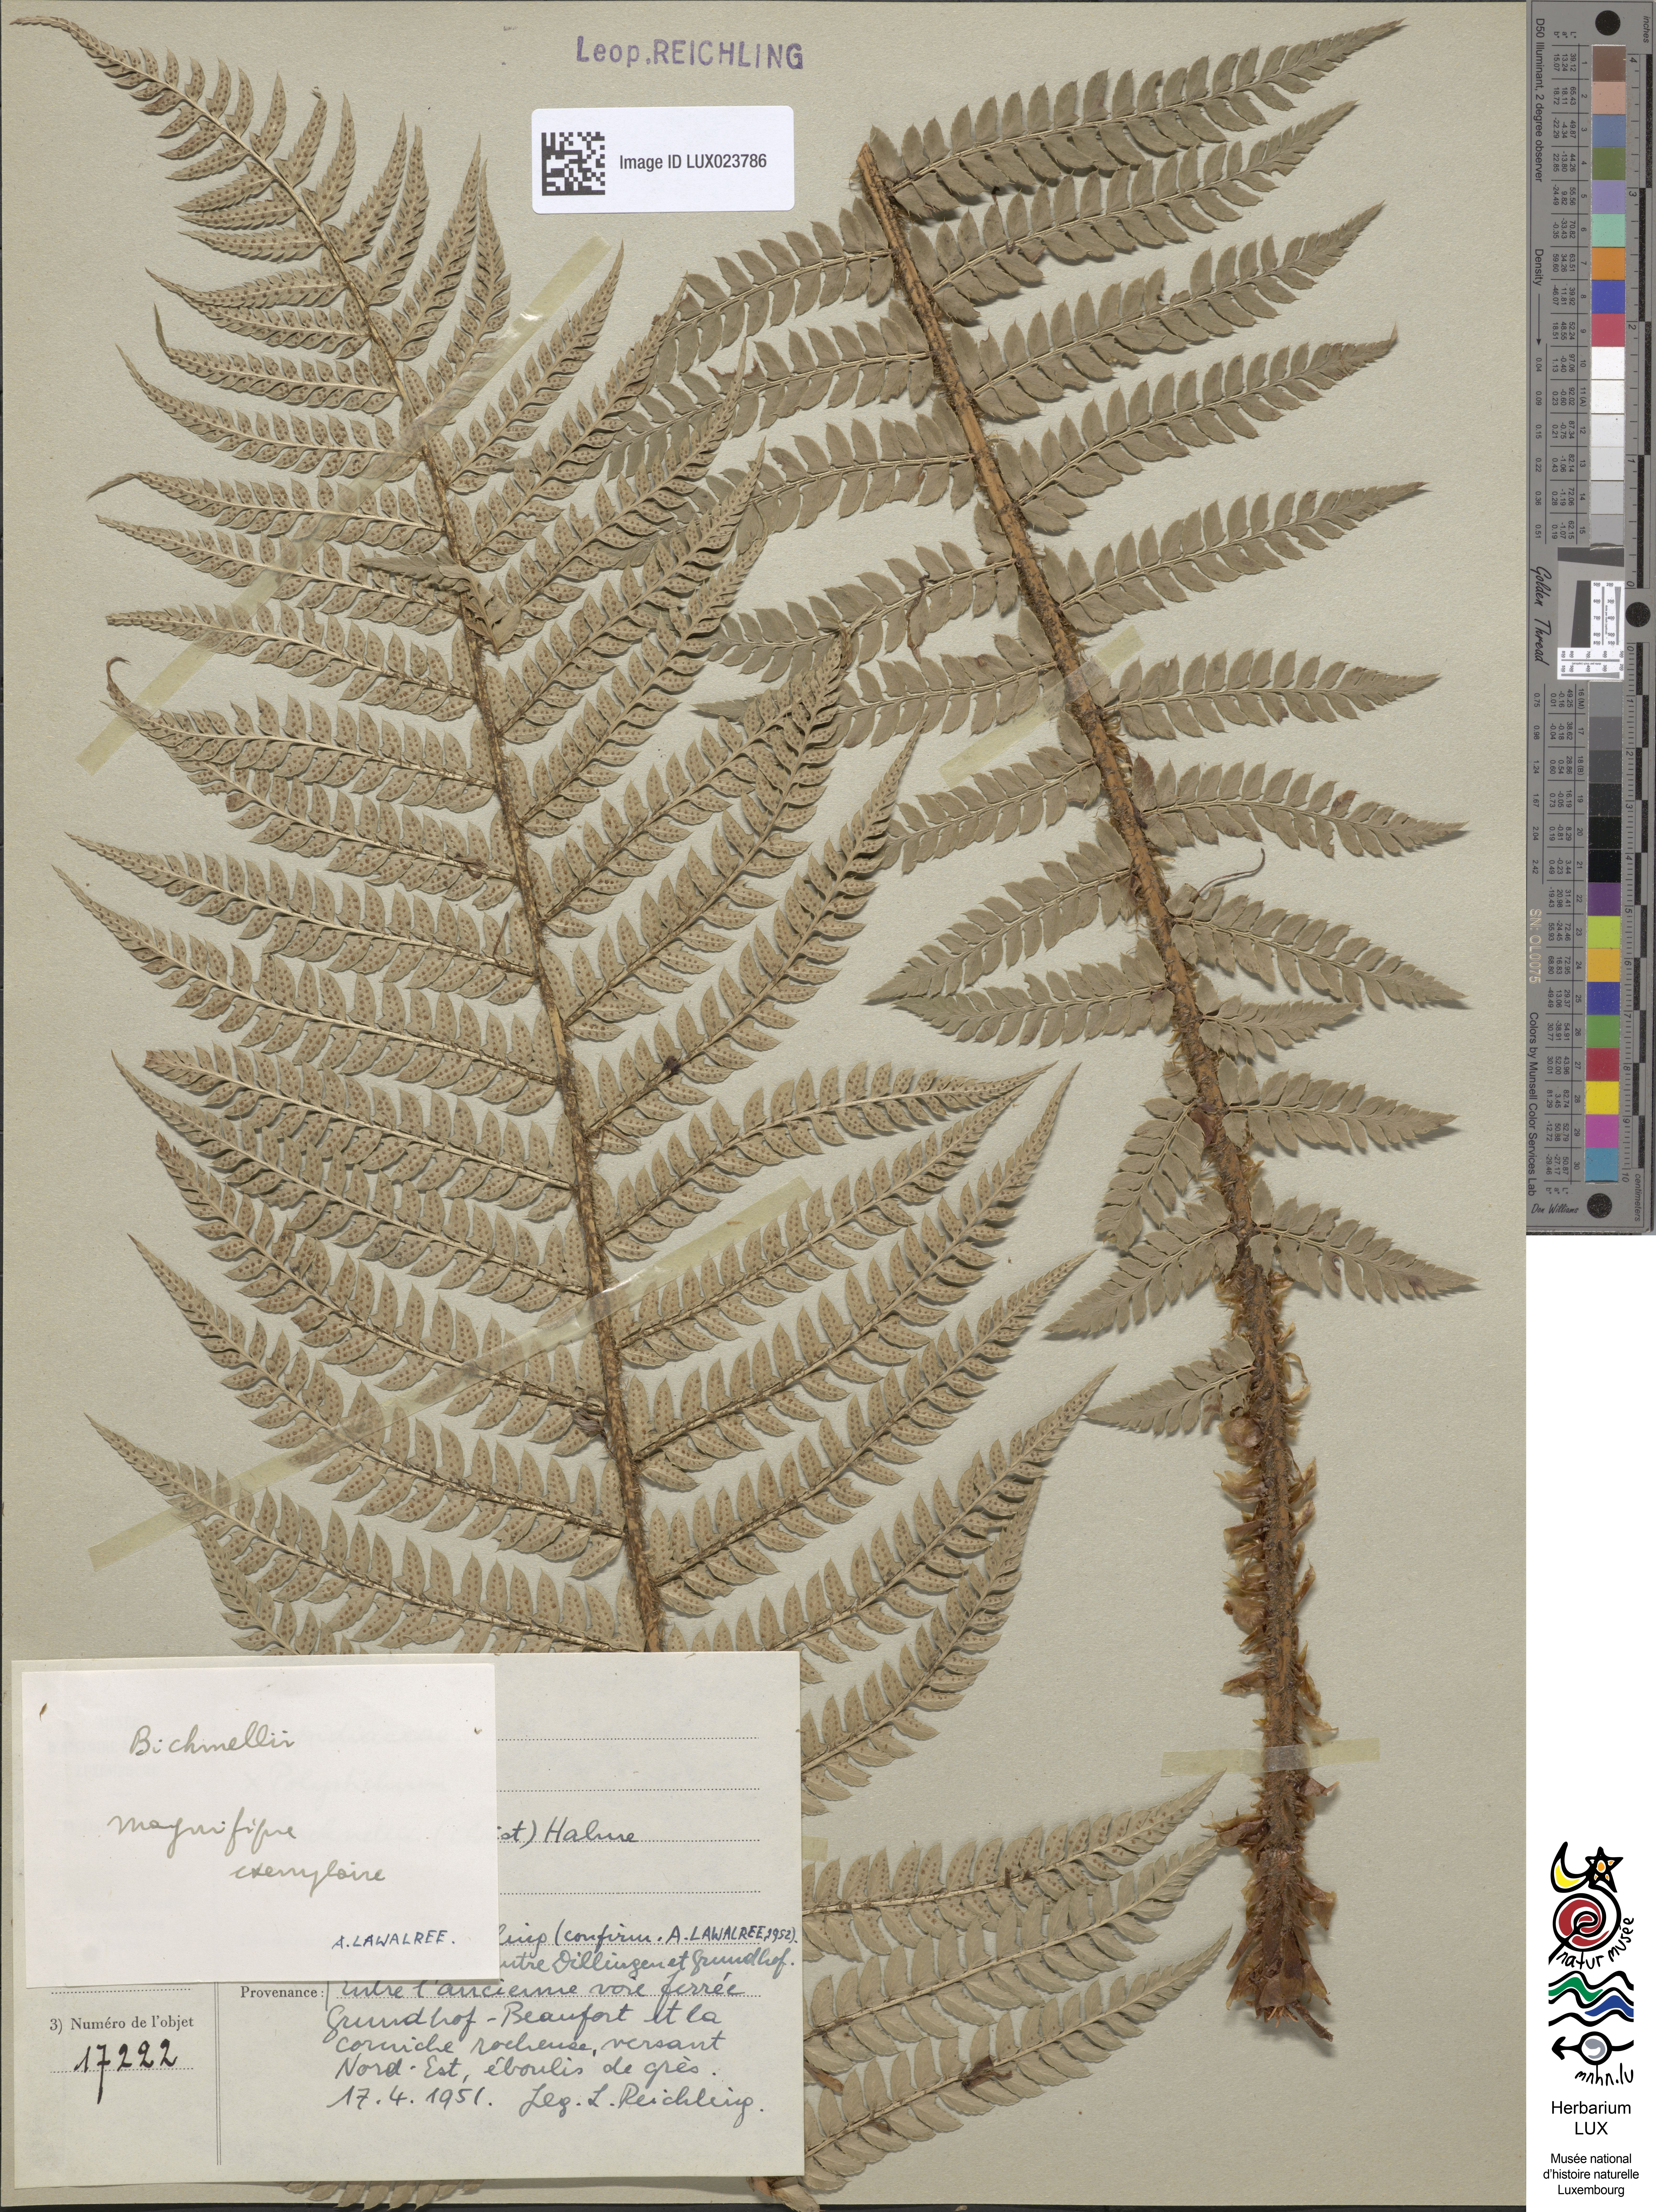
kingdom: Plantae
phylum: Tracheophyta
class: Polypodiopsida
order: Polypodiales
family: Dryopteridaceae
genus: Polystichum
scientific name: Polystichum
